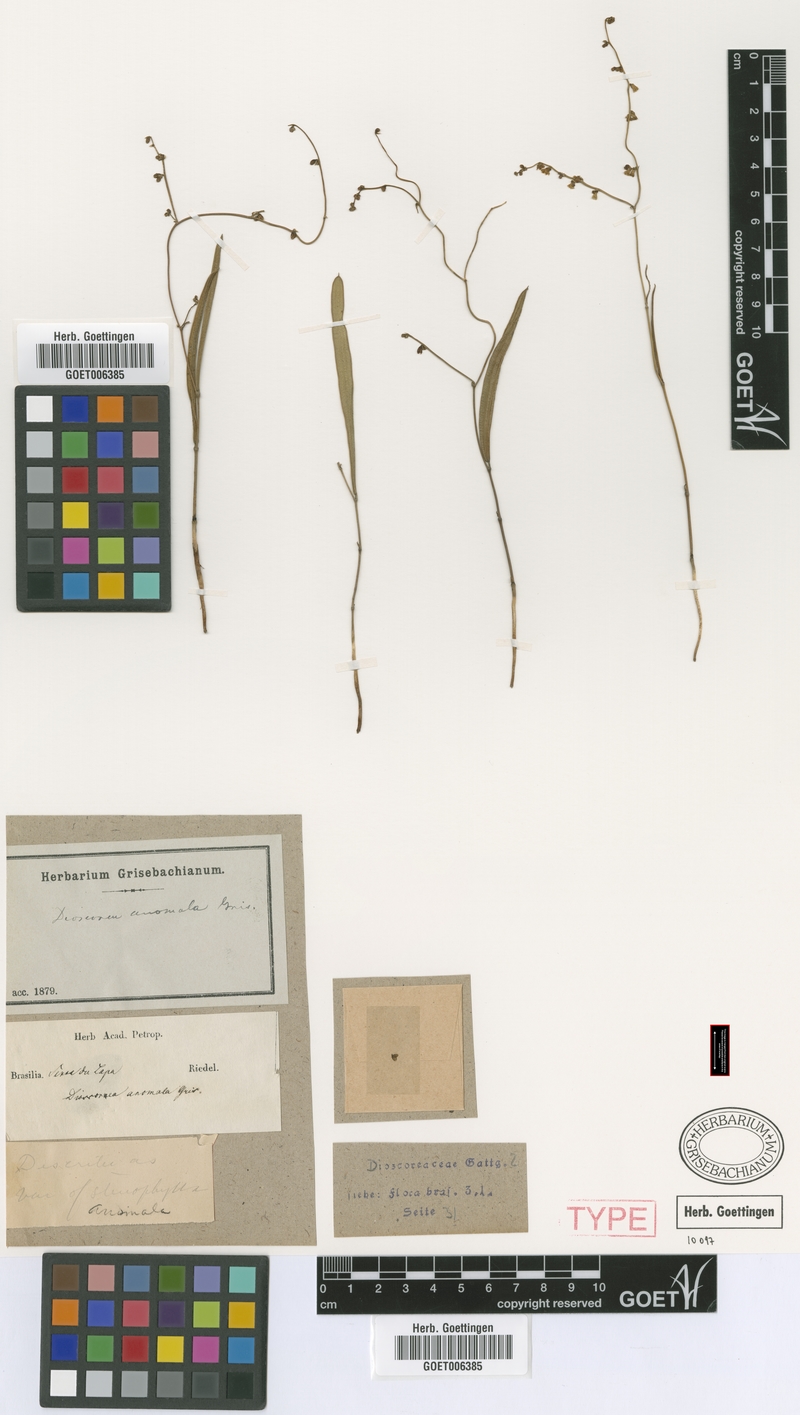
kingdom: Plantae
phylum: Tracheophyta
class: Liliopsida
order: Dioscoreales
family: Dioscoreaceae
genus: Dioscorea
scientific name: Dioscorea anomala
